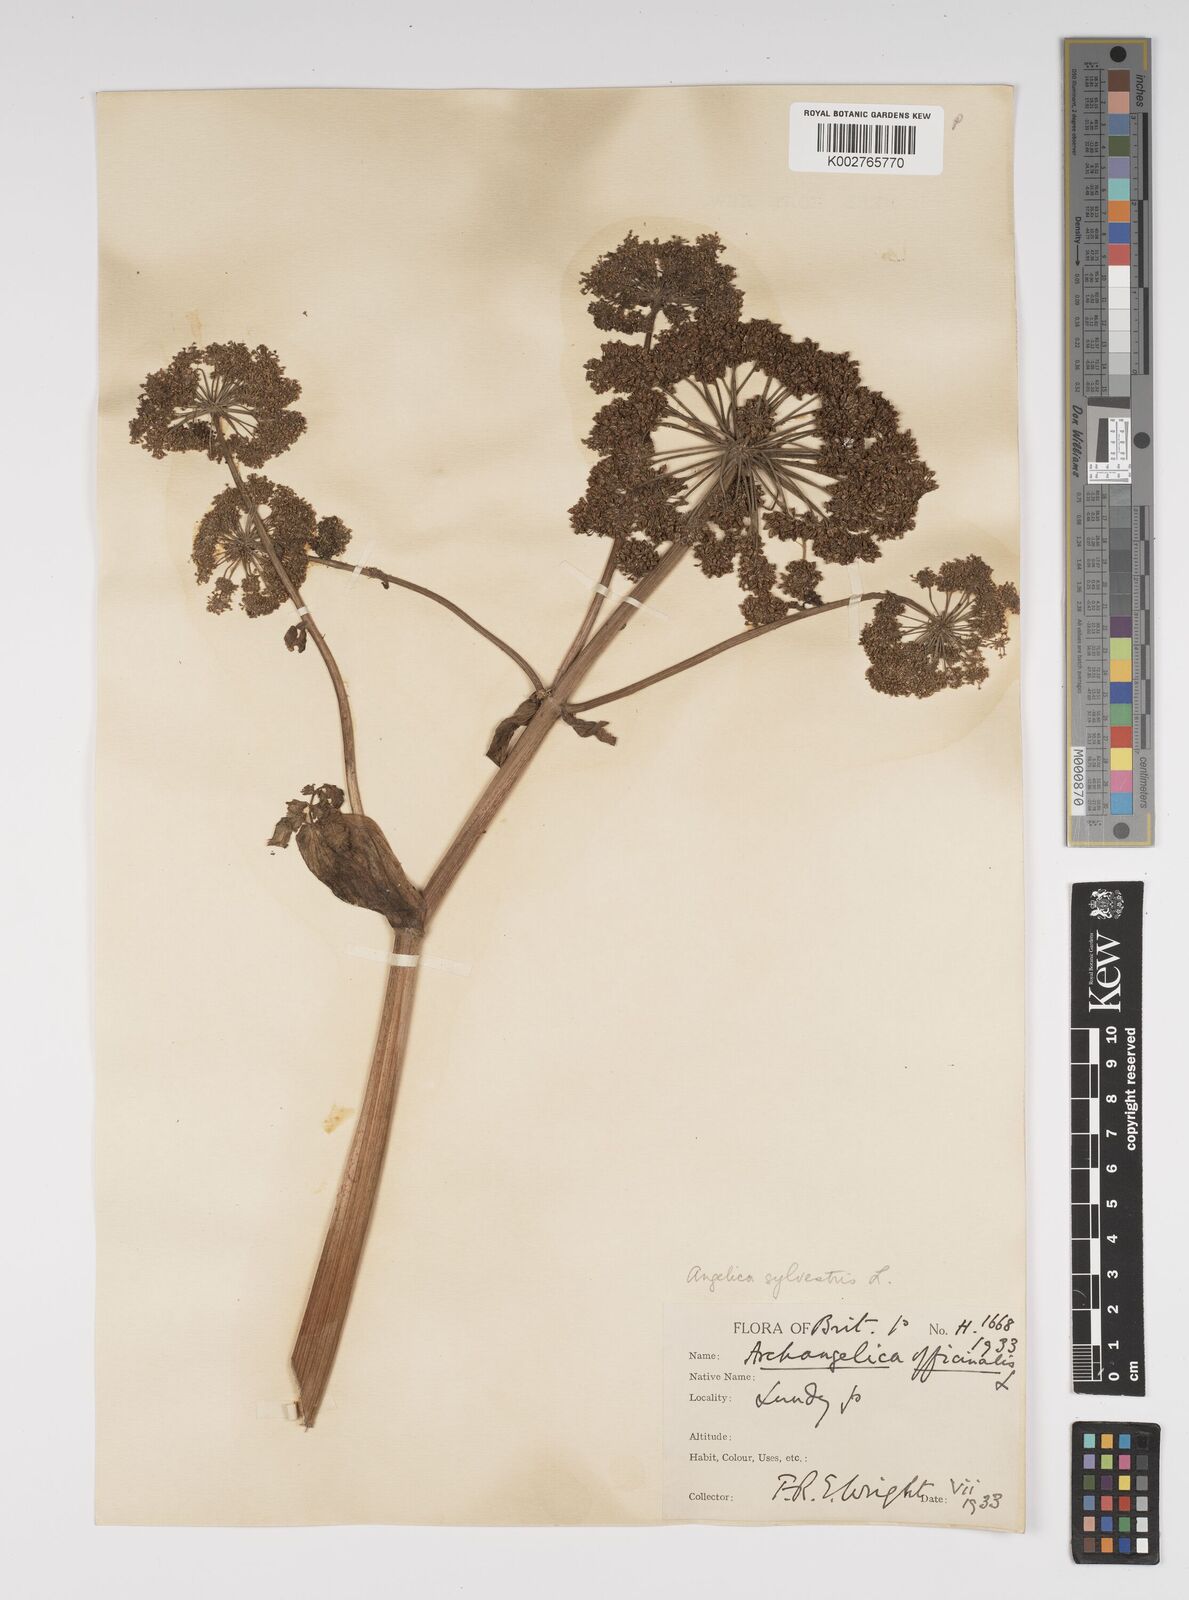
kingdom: Plantae
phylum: Tracheophyta
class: Magnoliopsida
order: Apiales
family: Apiaceae
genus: Angelica
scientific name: Angelica sylvestris
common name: Wild angelica
